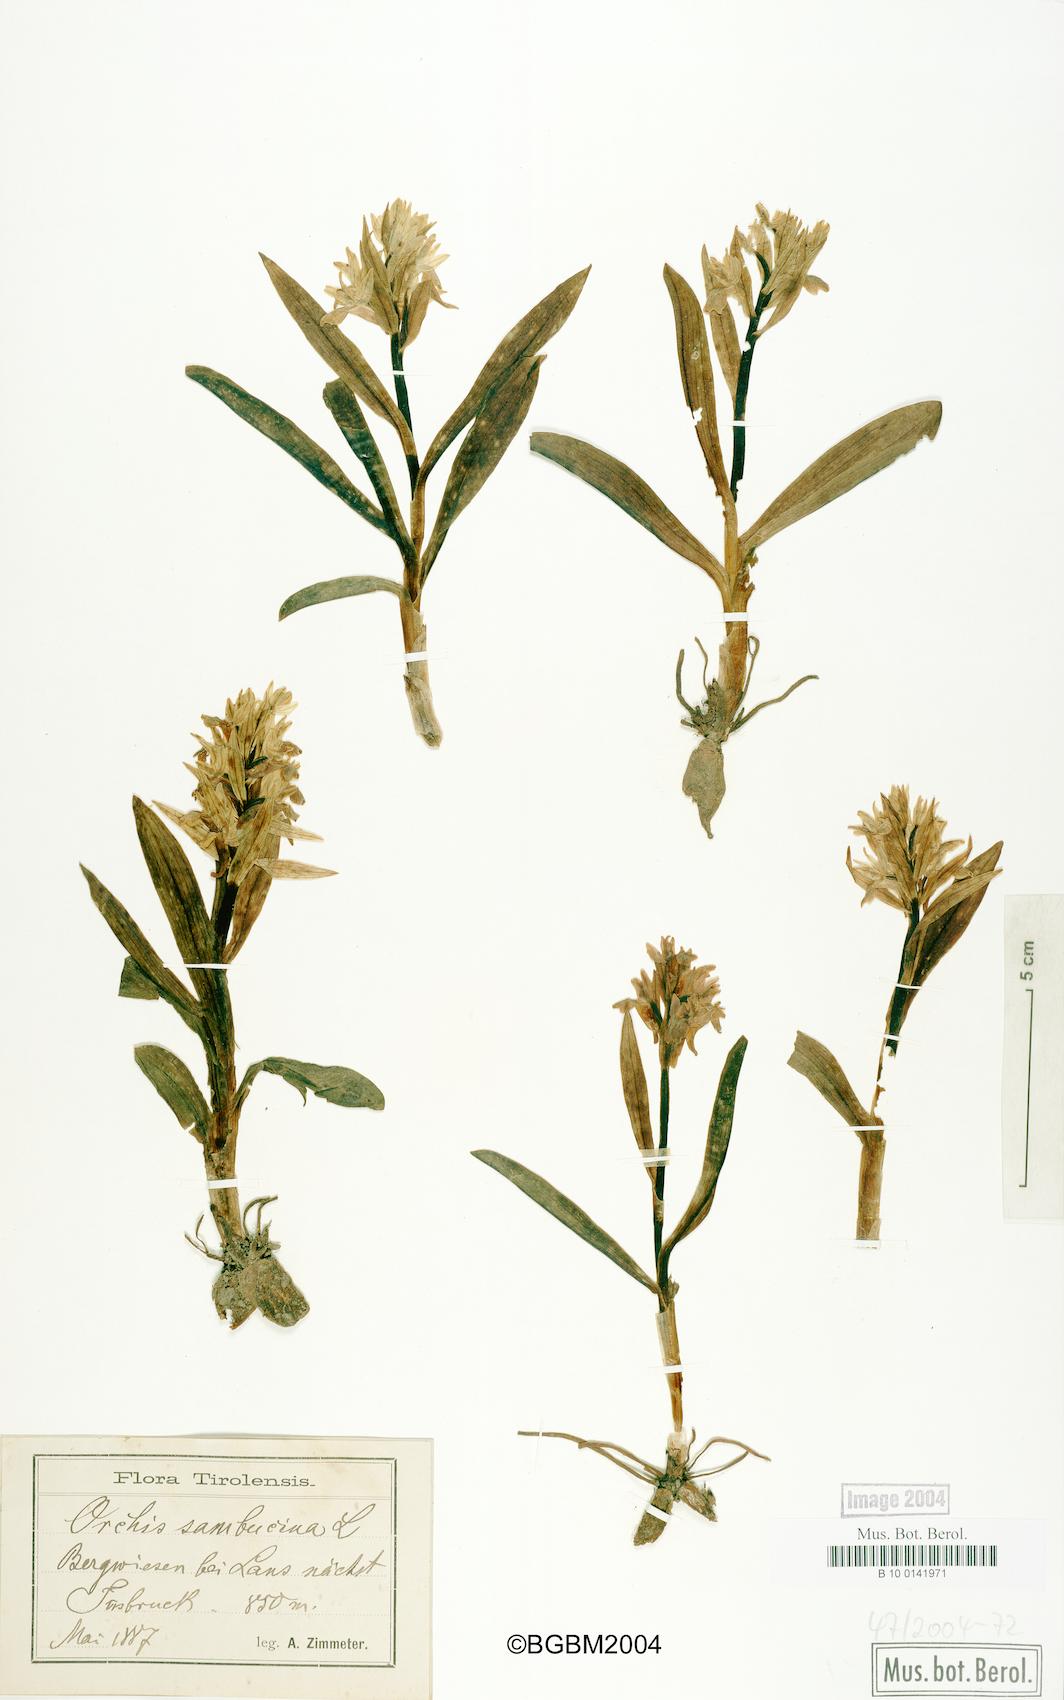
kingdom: Plantae
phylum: Tracheophyta
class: Liliopsida
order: Asparagales
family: Orchidaceae
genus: Dactylorhiza
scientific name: Dactylorhiza sambucina
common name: Elder-flowered orchid
